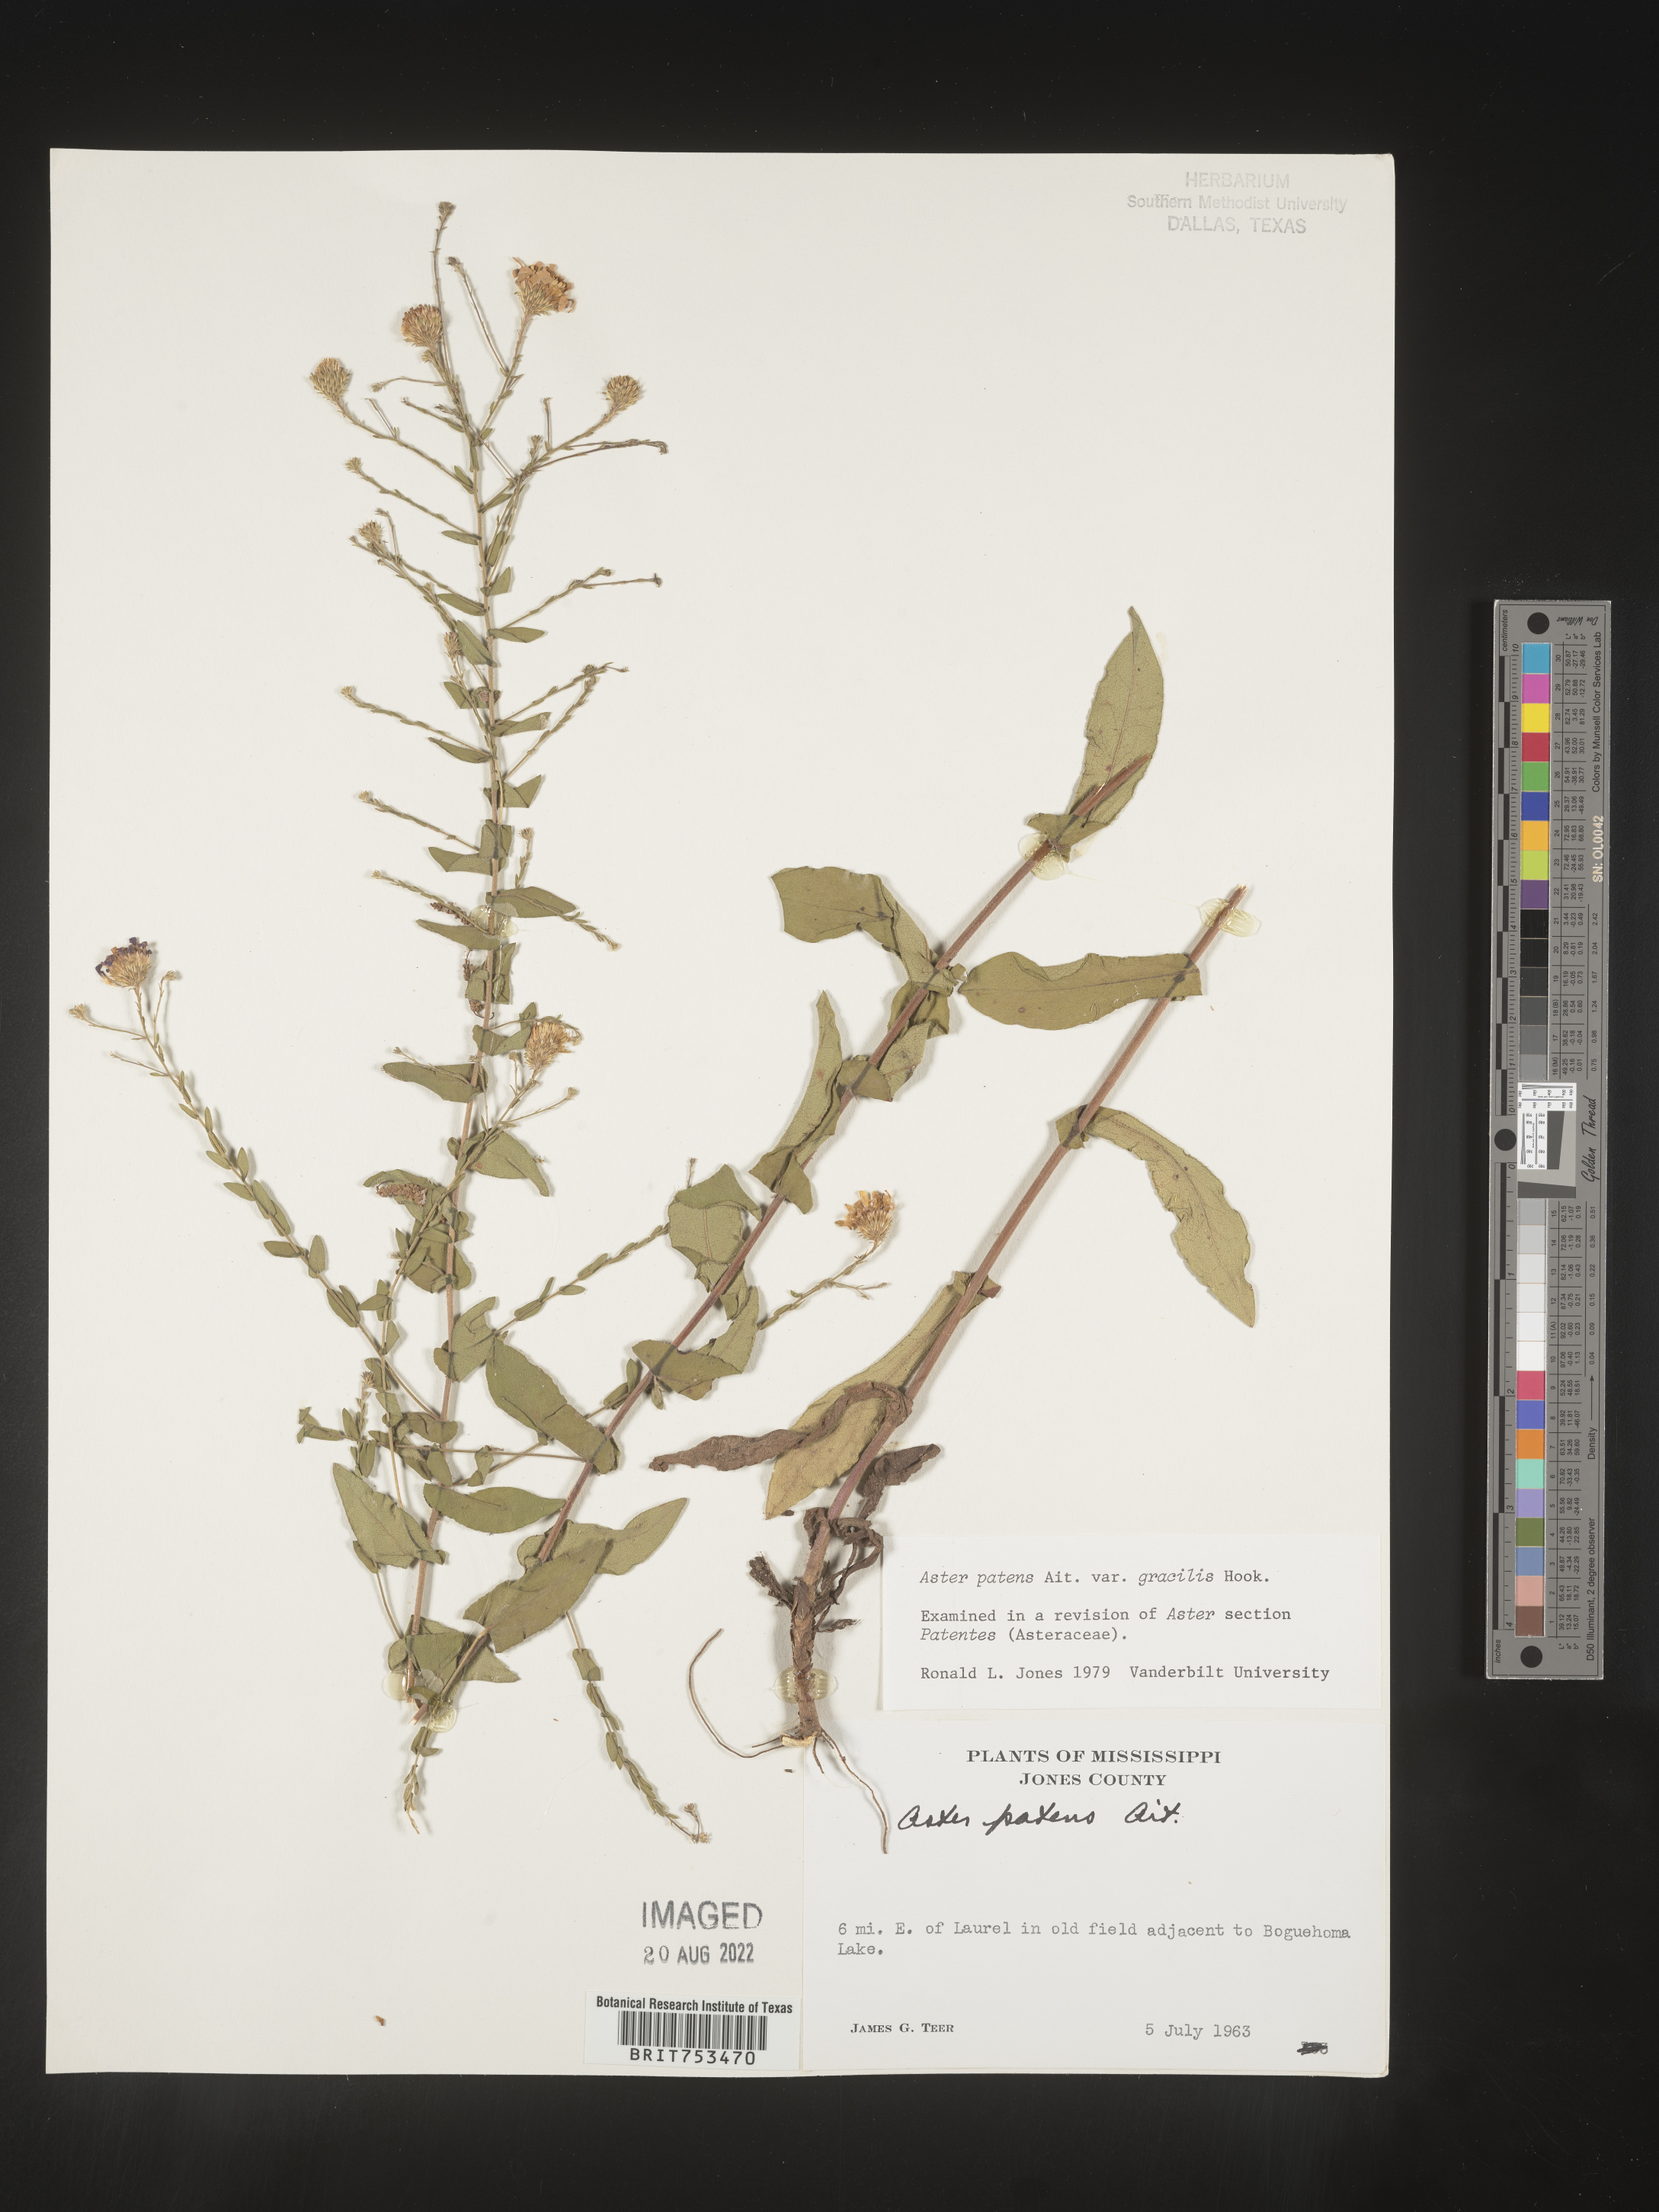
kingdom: Plantae
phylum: Tracheophyta
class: Magnoliopsida
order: Asterales
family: Asteraceae
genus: Symphyotrichum
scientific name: Symphyotrichum patens
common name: Late purple aster
